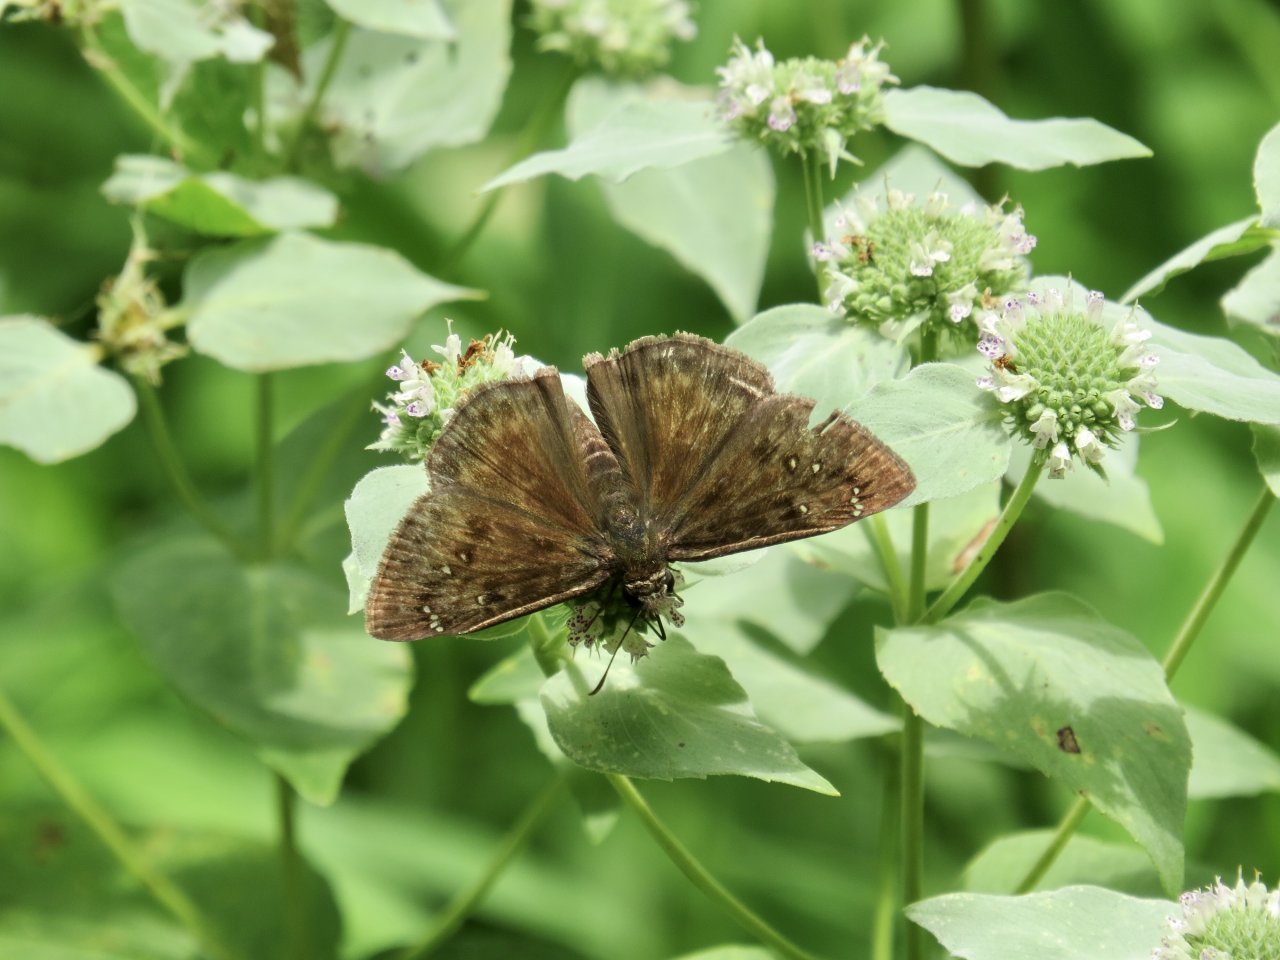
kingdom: Animalia
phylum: Arthropoda
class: Insecta
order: Lepidoptera
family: Hesperiidae
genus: Gesta
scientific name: Gesta
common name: Horace's Duskywing
